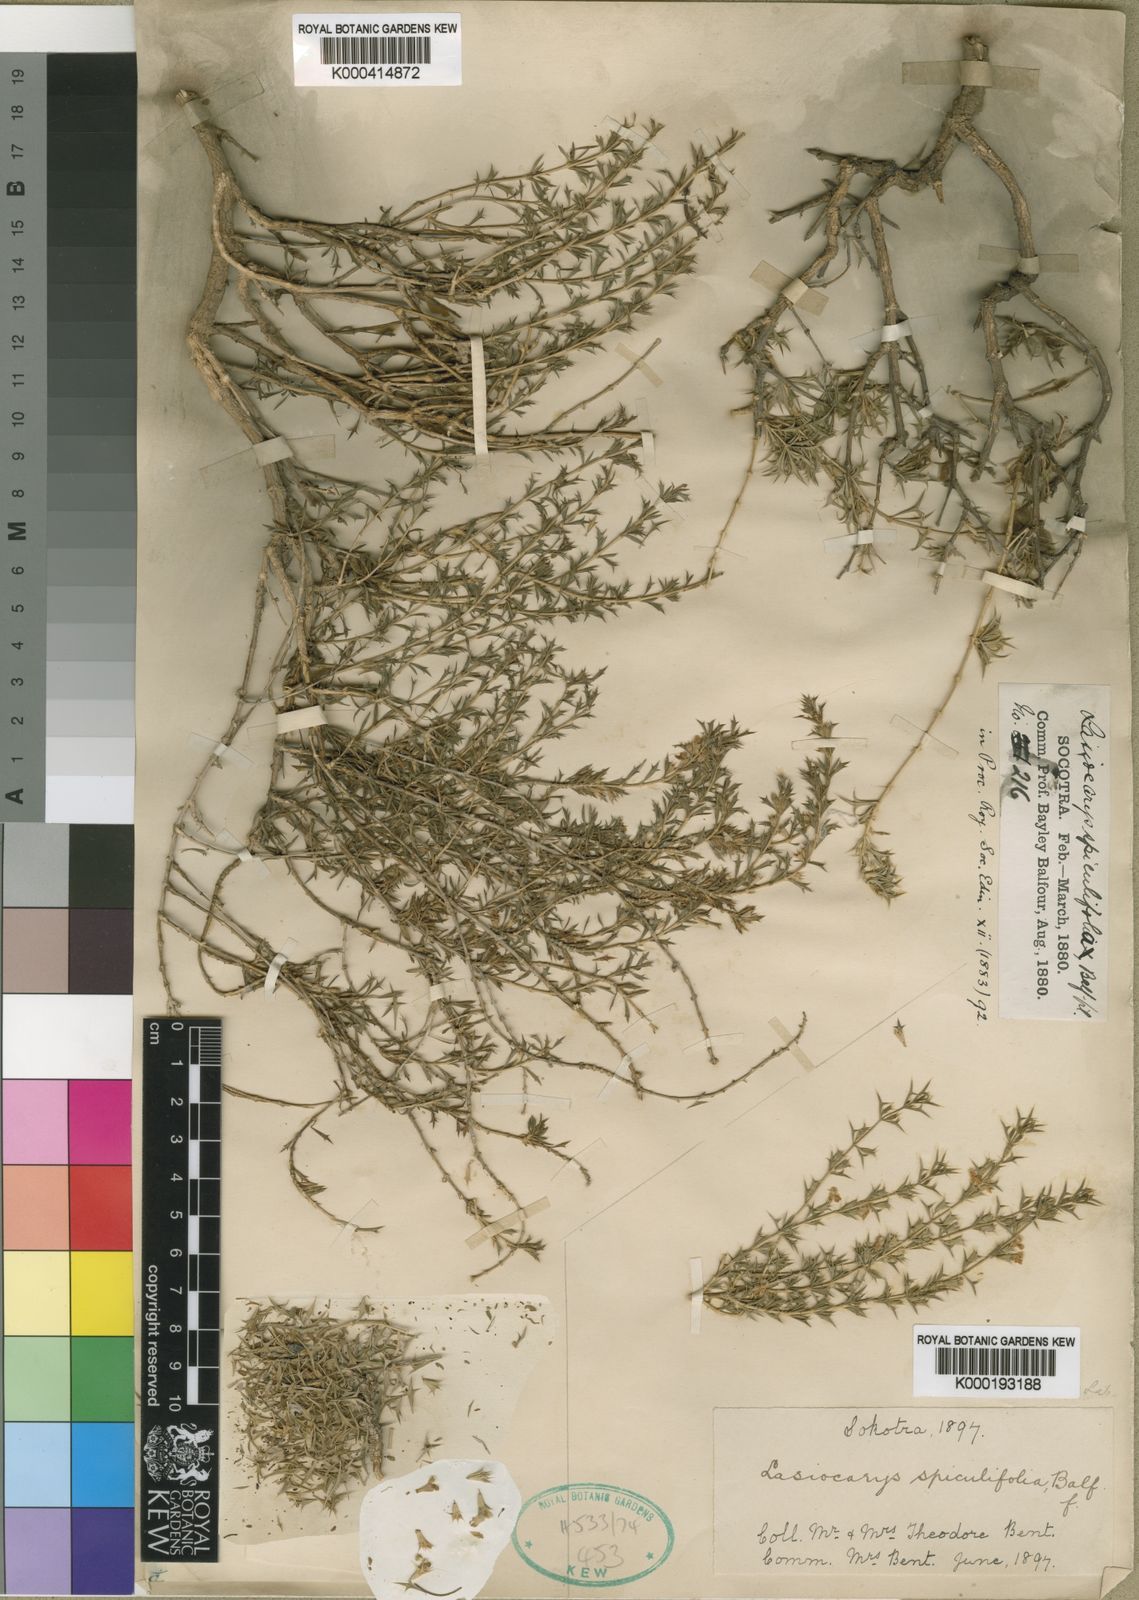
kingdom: Plantae
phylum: Tracheophyta
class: Magnoliopsida
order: Lamiales
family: Lamiaceae
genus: Leucas
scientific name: Leucas spiculifolia
